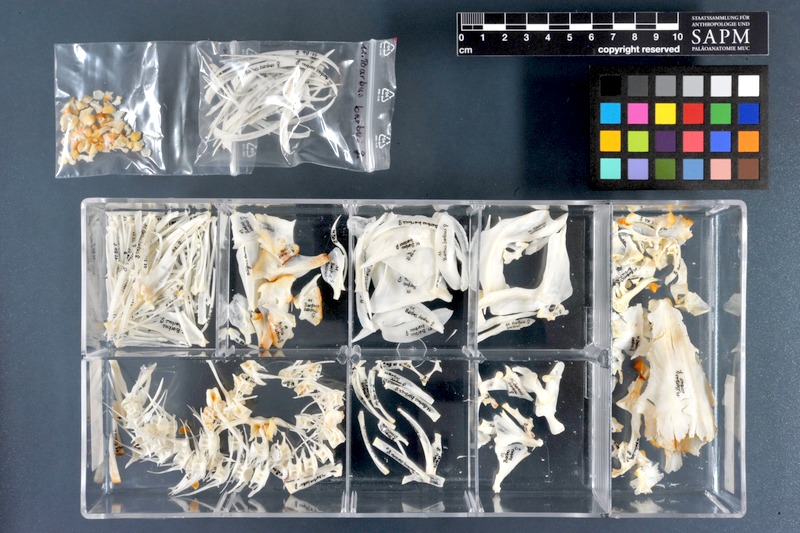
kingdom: Animalia
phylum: Chordata
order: Cypriniformes
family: Cyprinidae
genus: Barbus
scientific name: Barbus barbus
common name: Barbel
